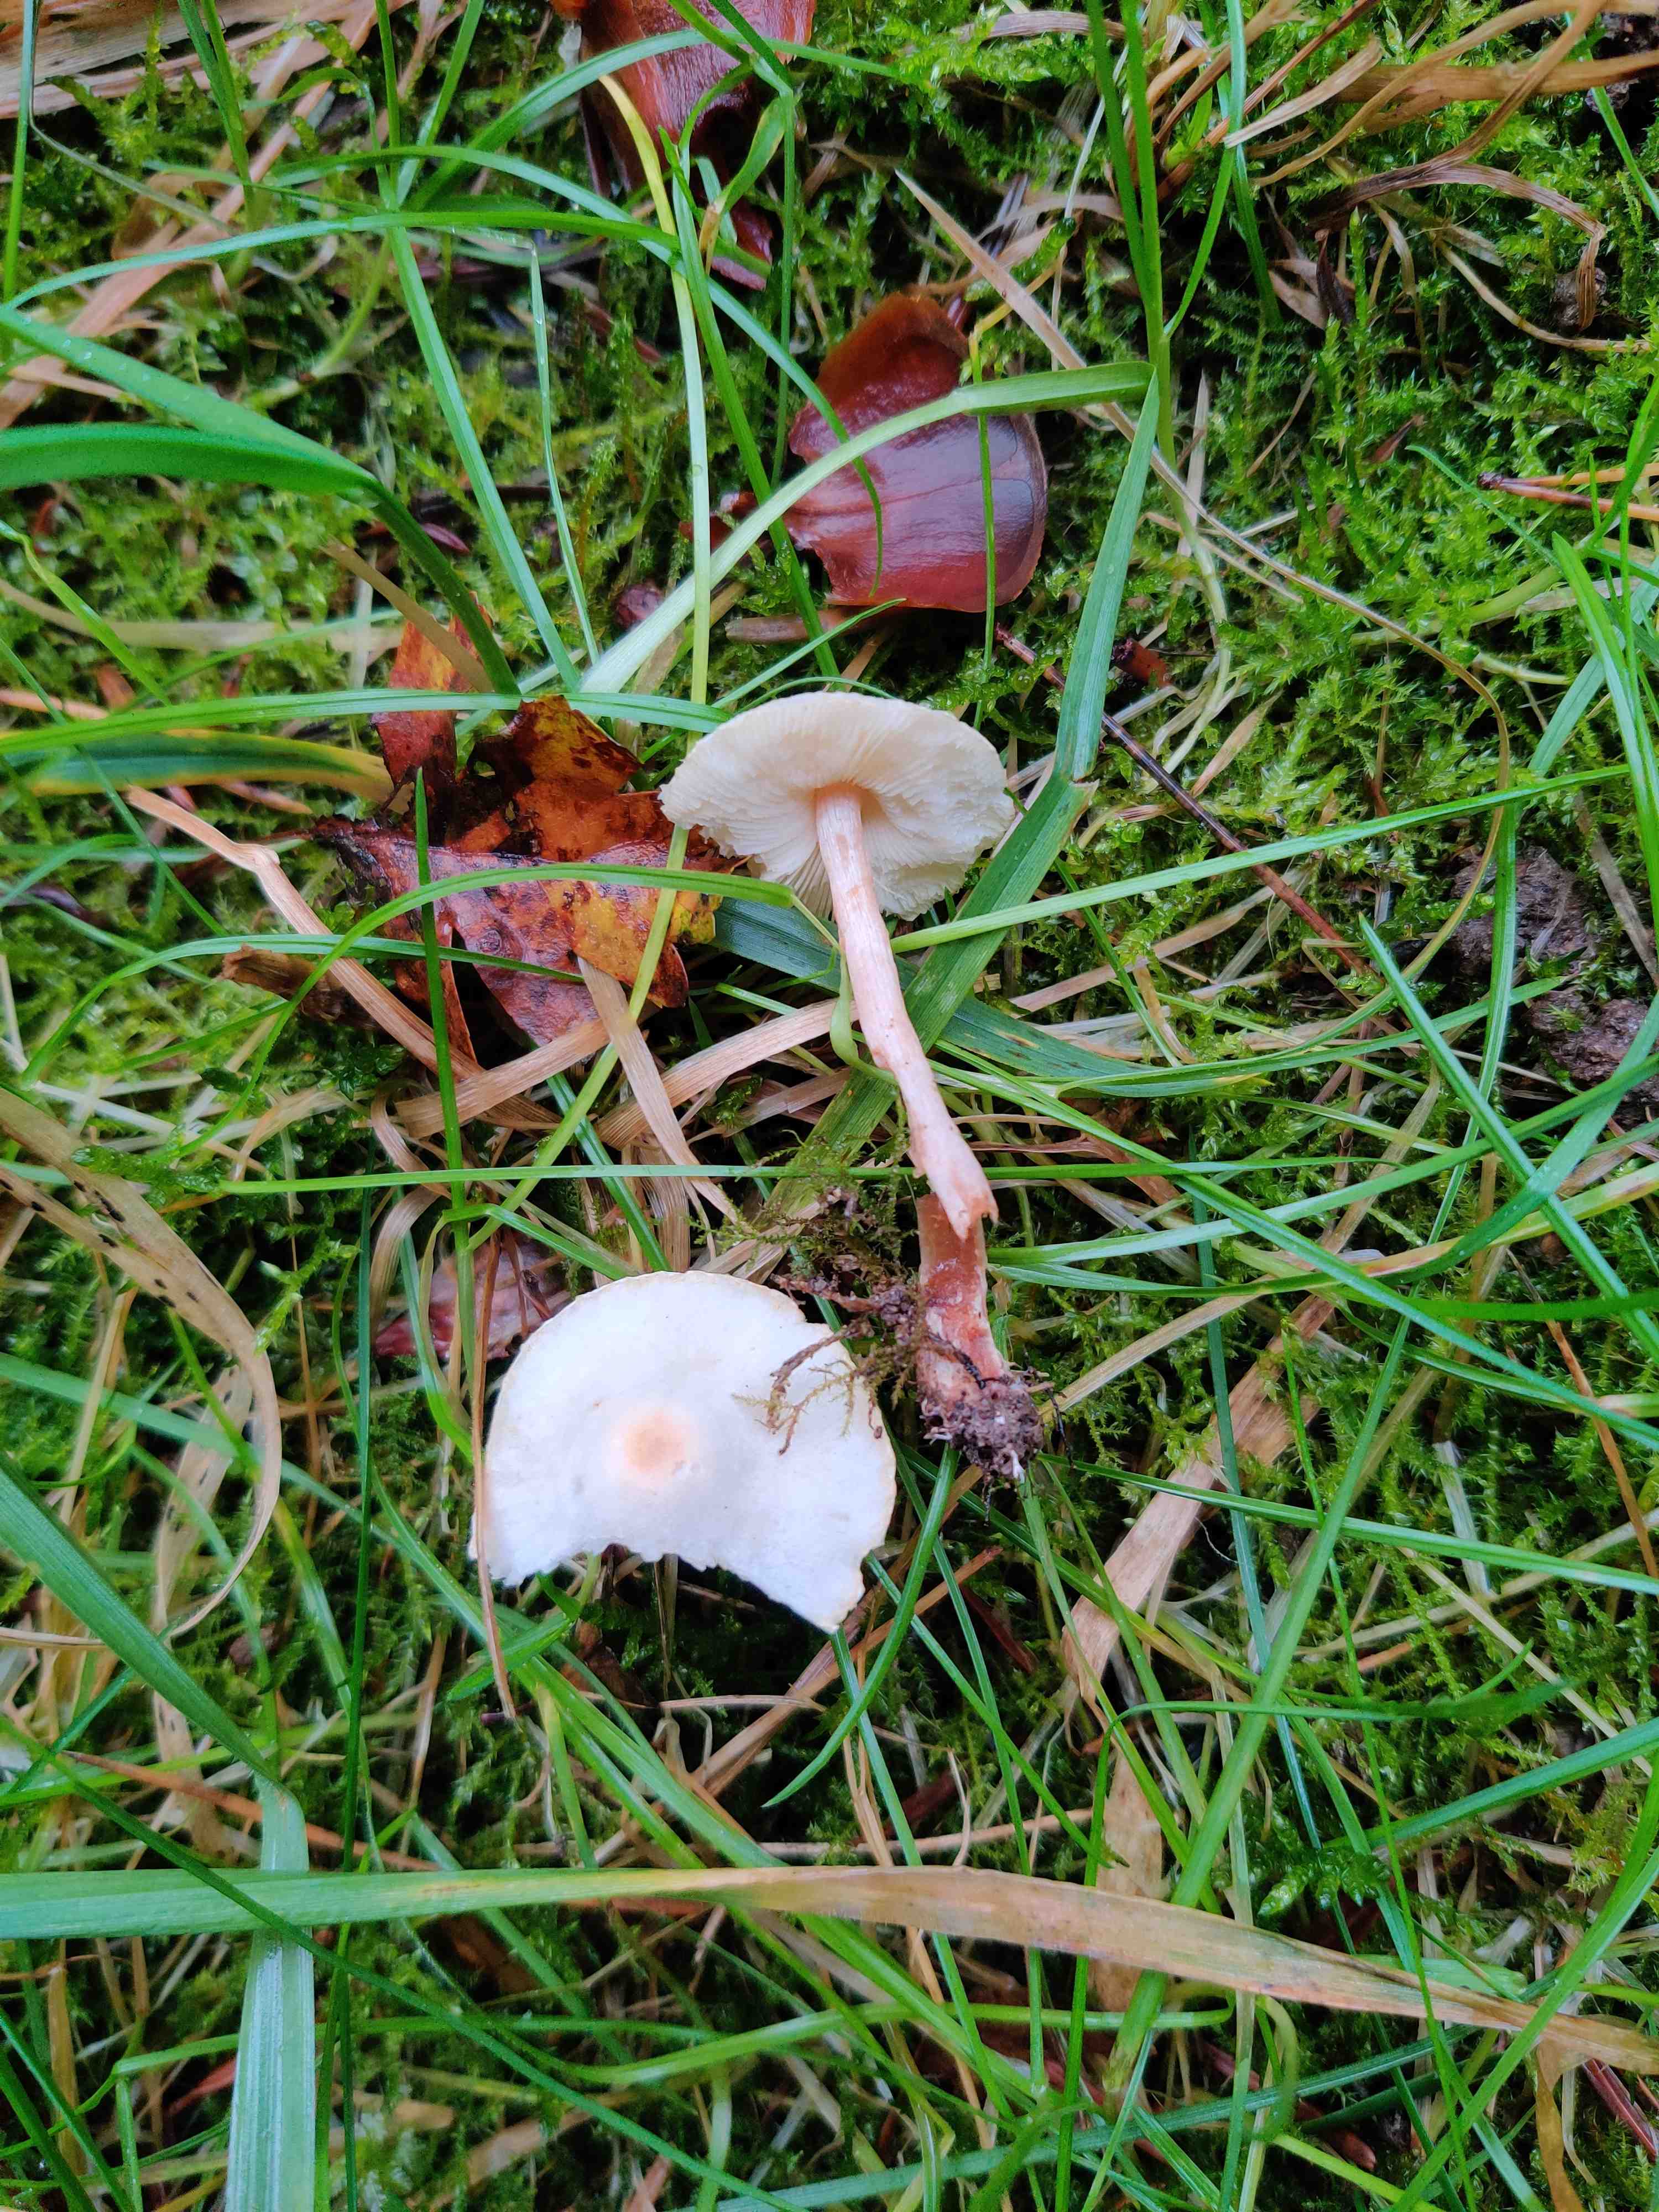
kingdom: Fungi
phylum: Basidiomycota
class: Agaricomycetes
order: Agaricales
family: Agaricaceae
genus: Lepiota
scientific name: Lepiota cristata
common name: stinkende parasolhat
